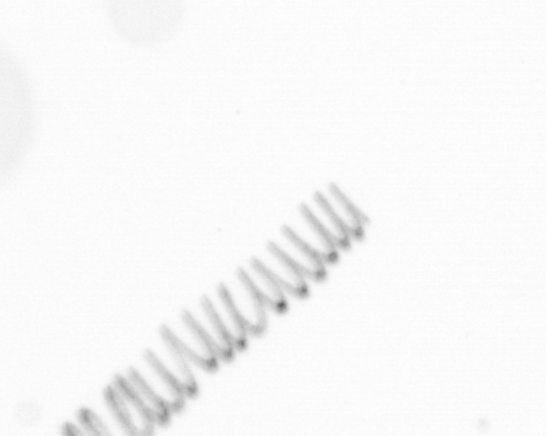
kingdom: Chromista
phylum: Ochrophyta
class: Bacillariophyceae
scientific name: Bacillariophyceae
